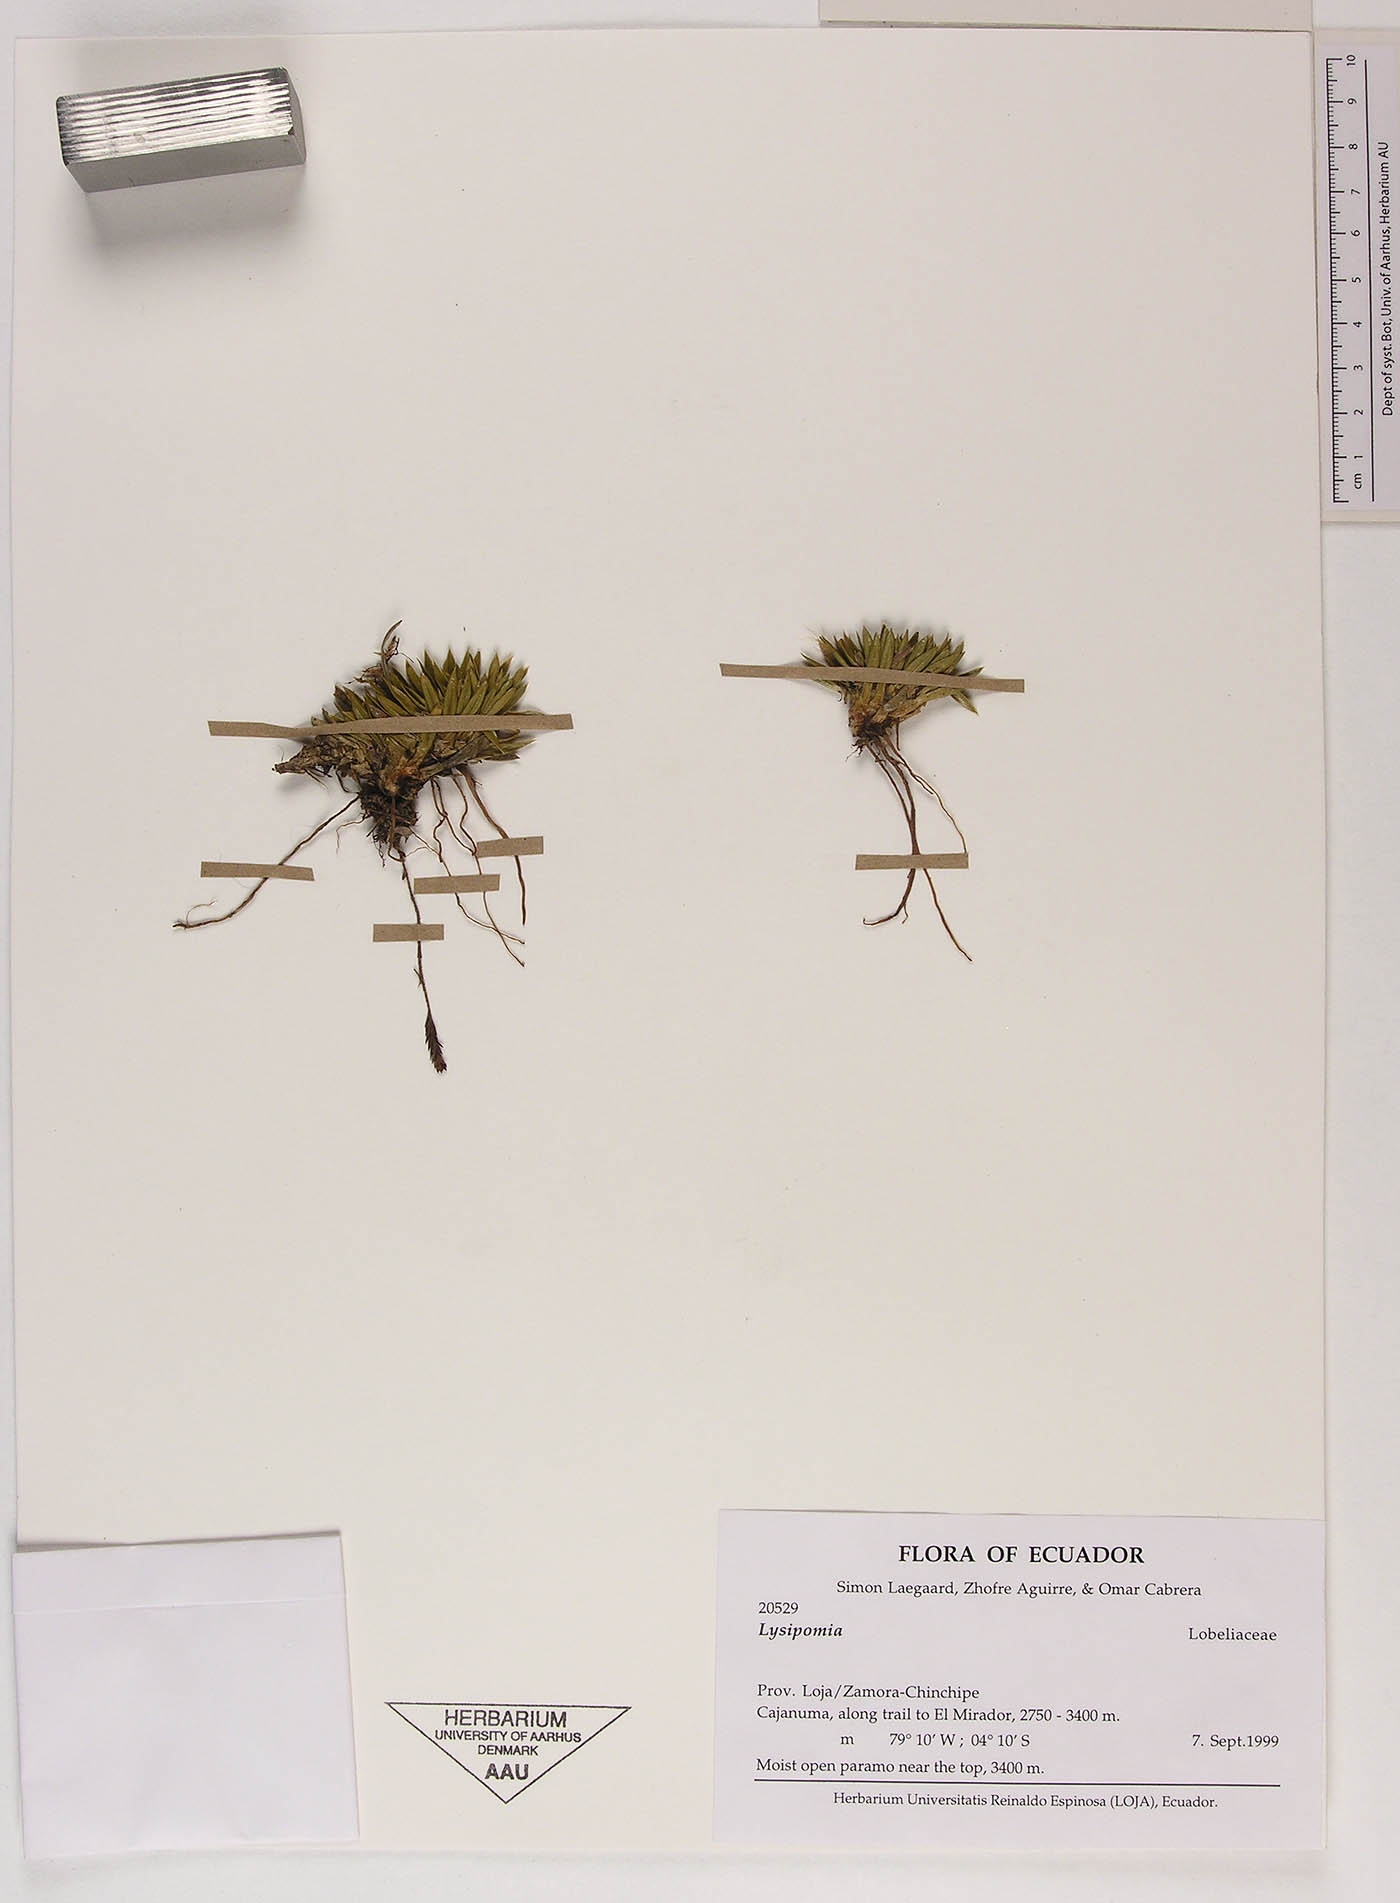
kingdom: Plantae
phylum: Tracheophyta
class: Magnoliopsida
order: Asterales
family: Campanulaceae
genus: Lysipomia
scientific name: Lysipomia
